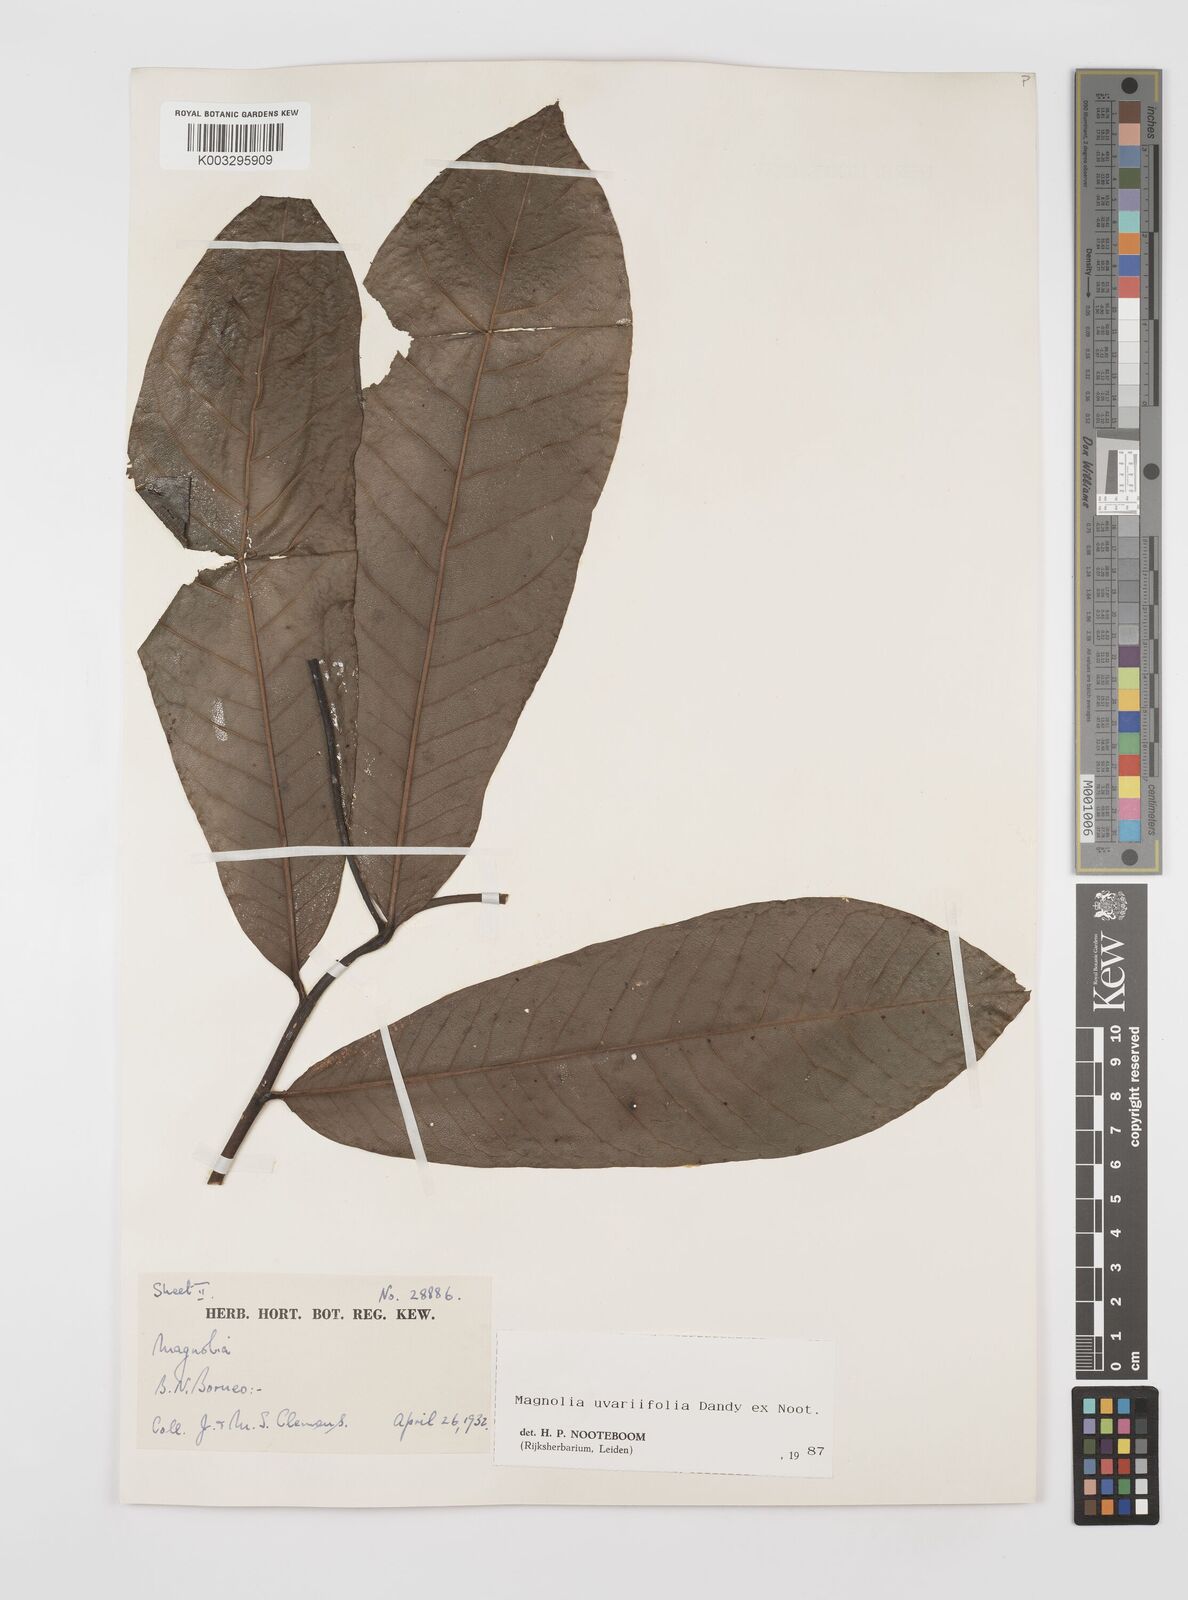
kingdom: Plantae
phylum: Tracheophyta
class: Magnoliopsida
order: Magnoliales
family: Magnoliaceae
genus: Magnolia
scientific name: Magnolia macklottii
